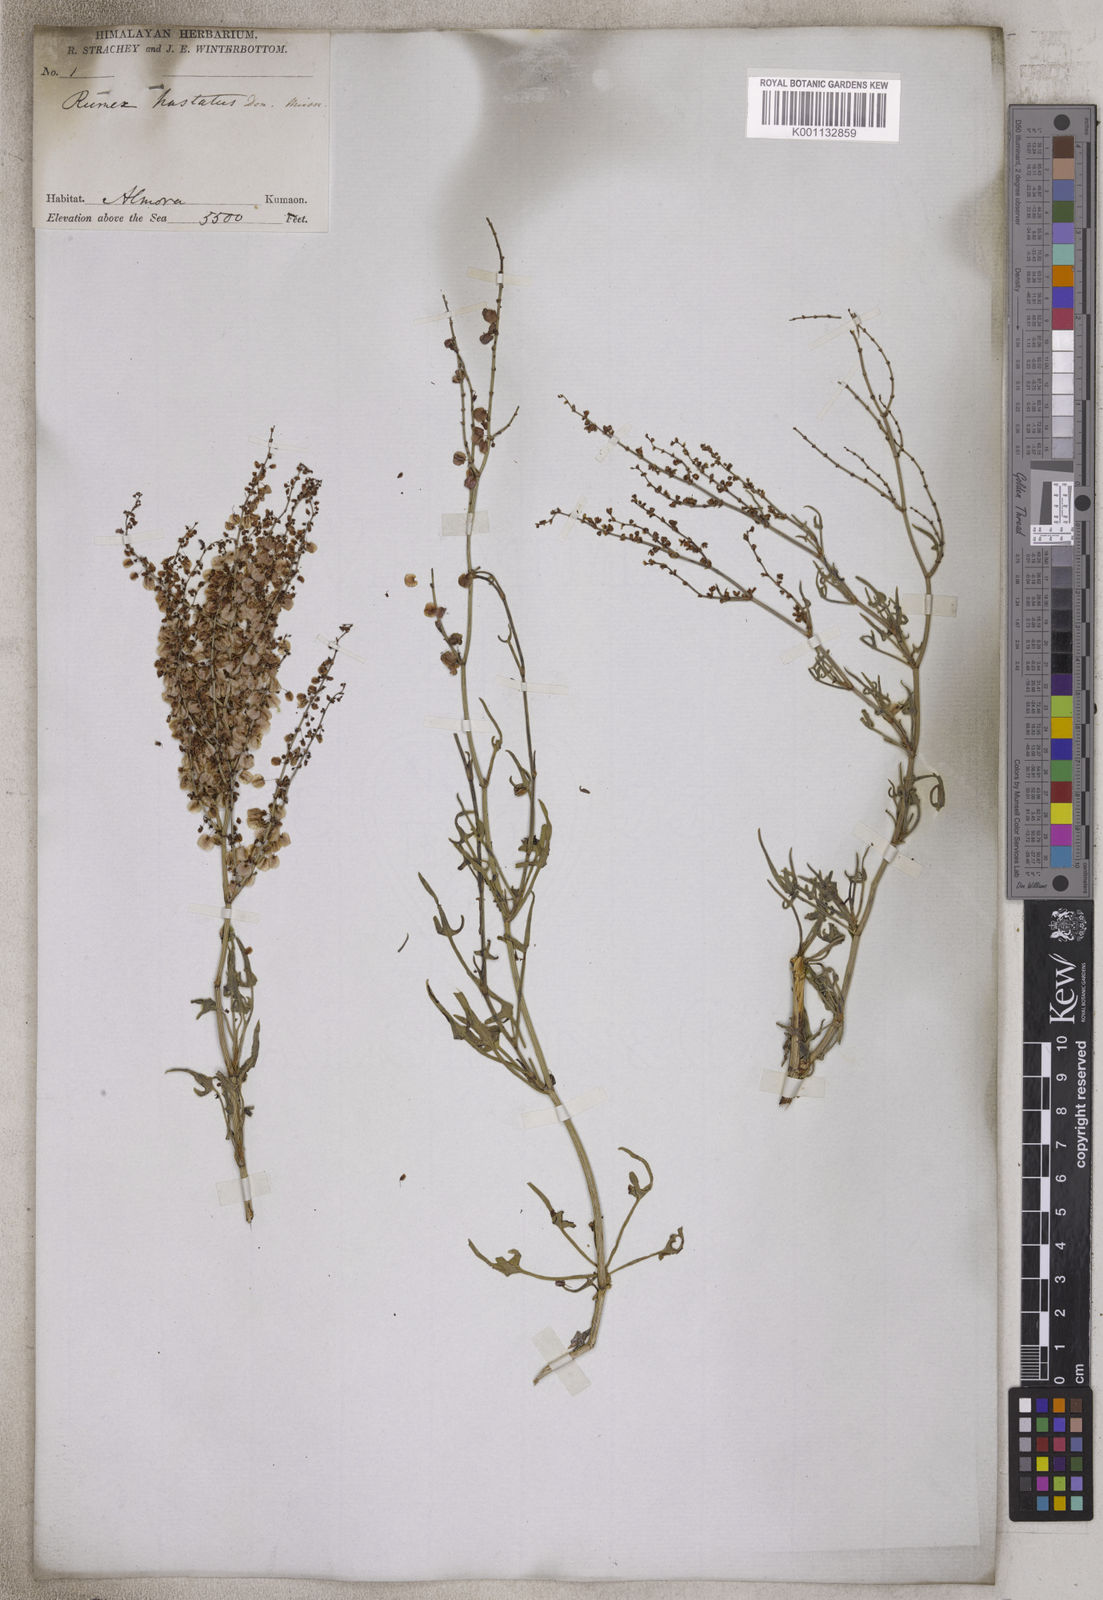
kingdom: Plantae
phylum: Tracheophyta
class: Magnoliopsida
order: Caryophyllales
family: Polygonaceae
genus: Rumex
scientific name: Rumex hastatus
